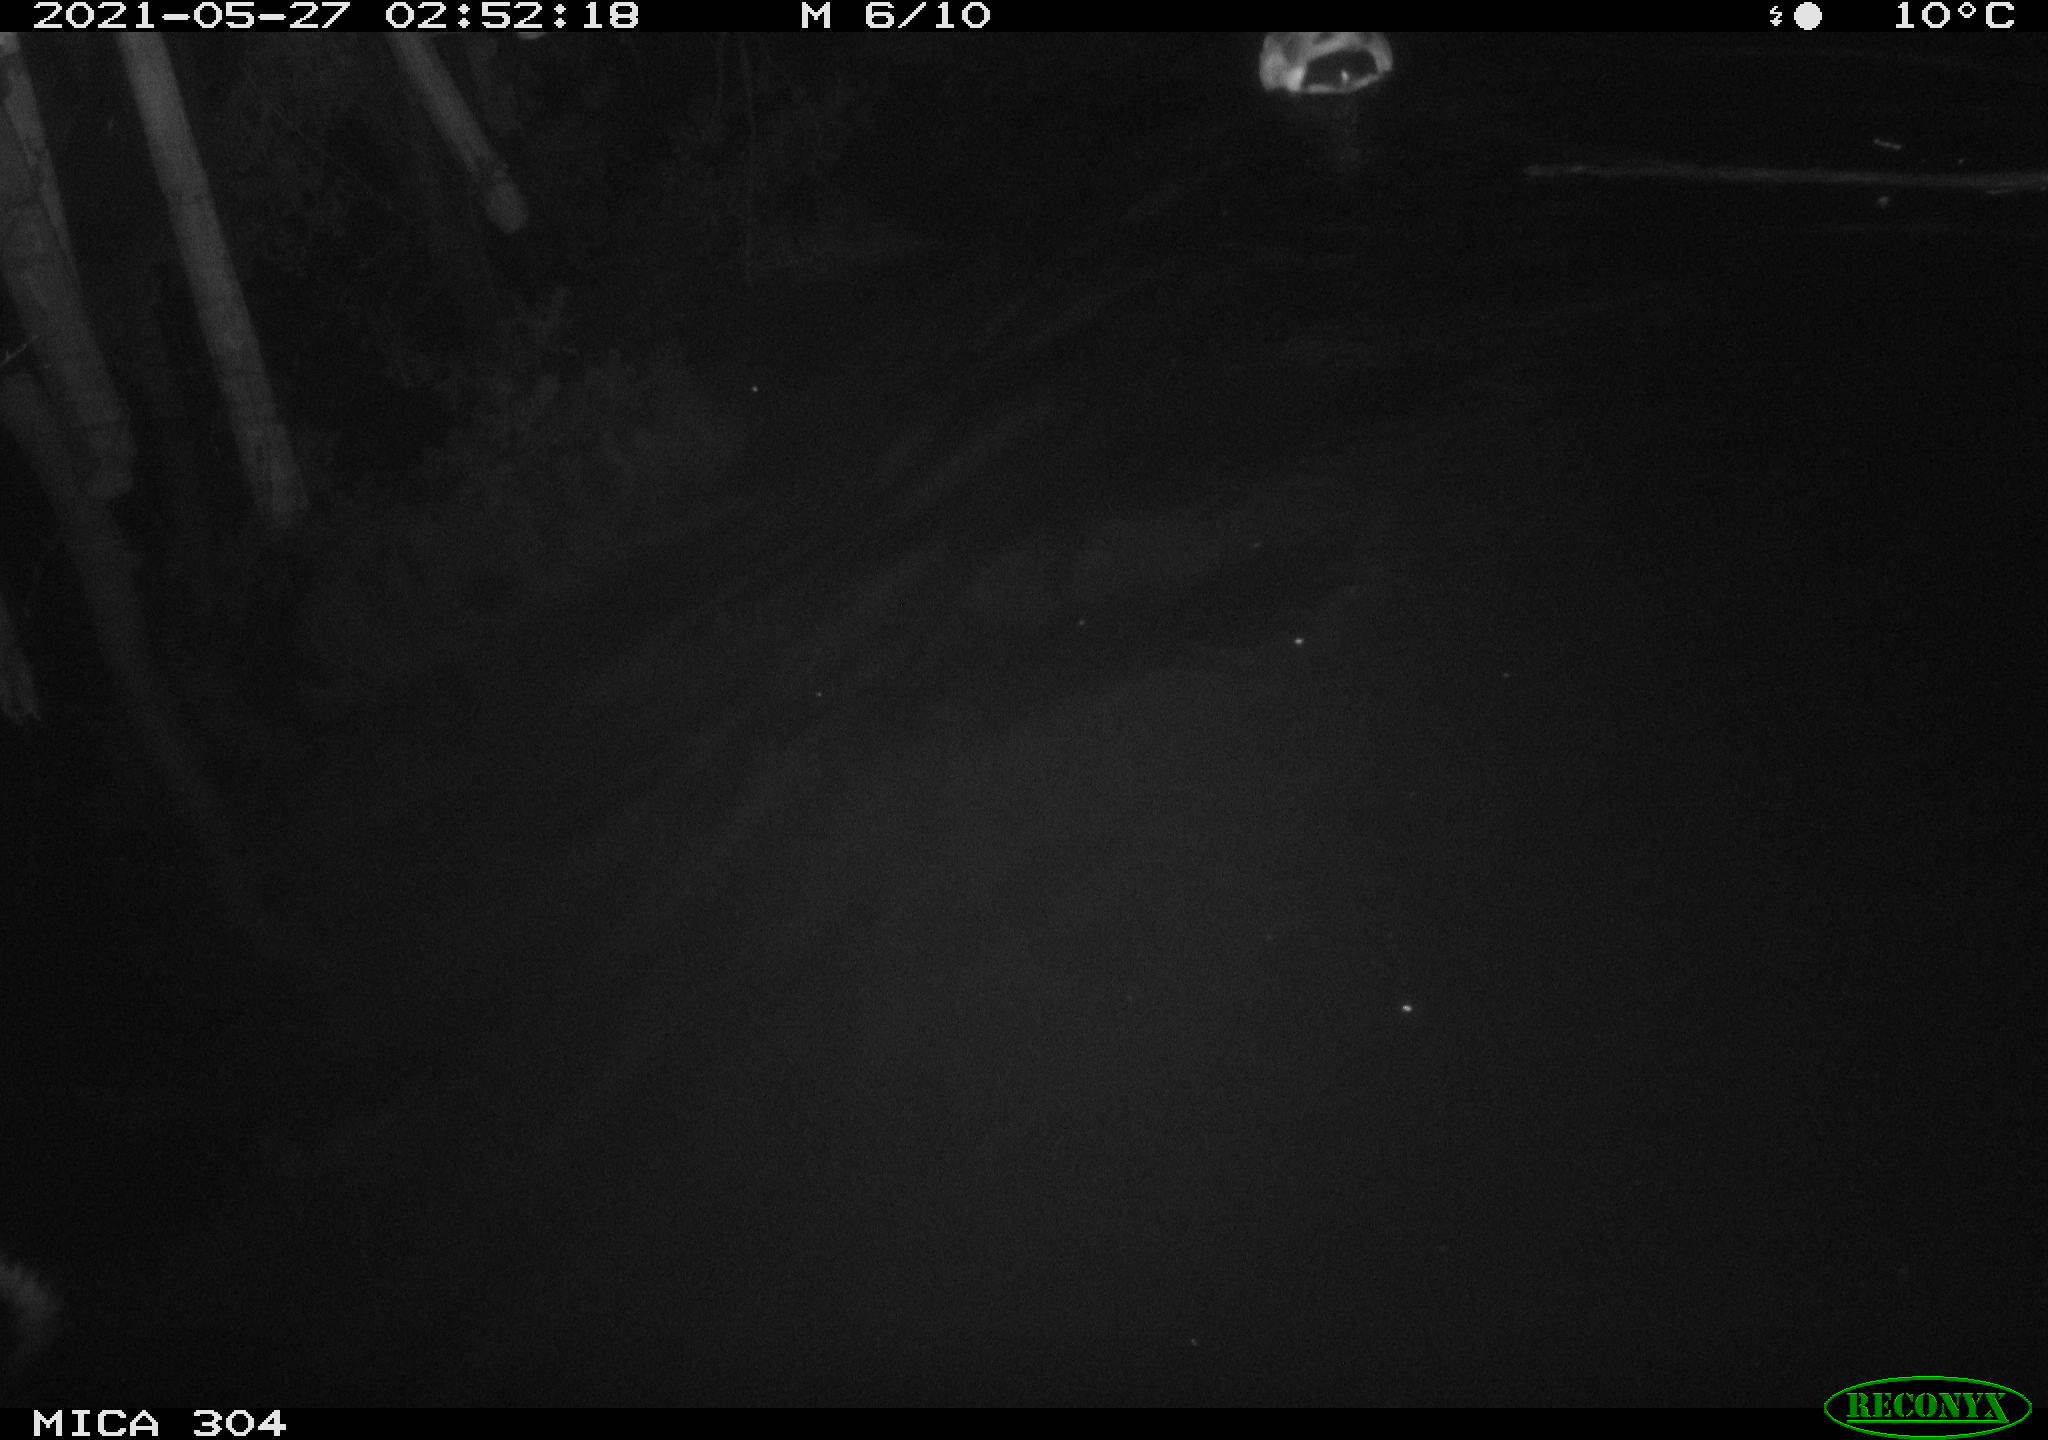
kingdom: Animalia
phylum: Chordata
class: Aves
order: Anseriformes
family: Anatidae
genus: Anas
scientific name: Anas platyrhynchos
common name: Mallard
